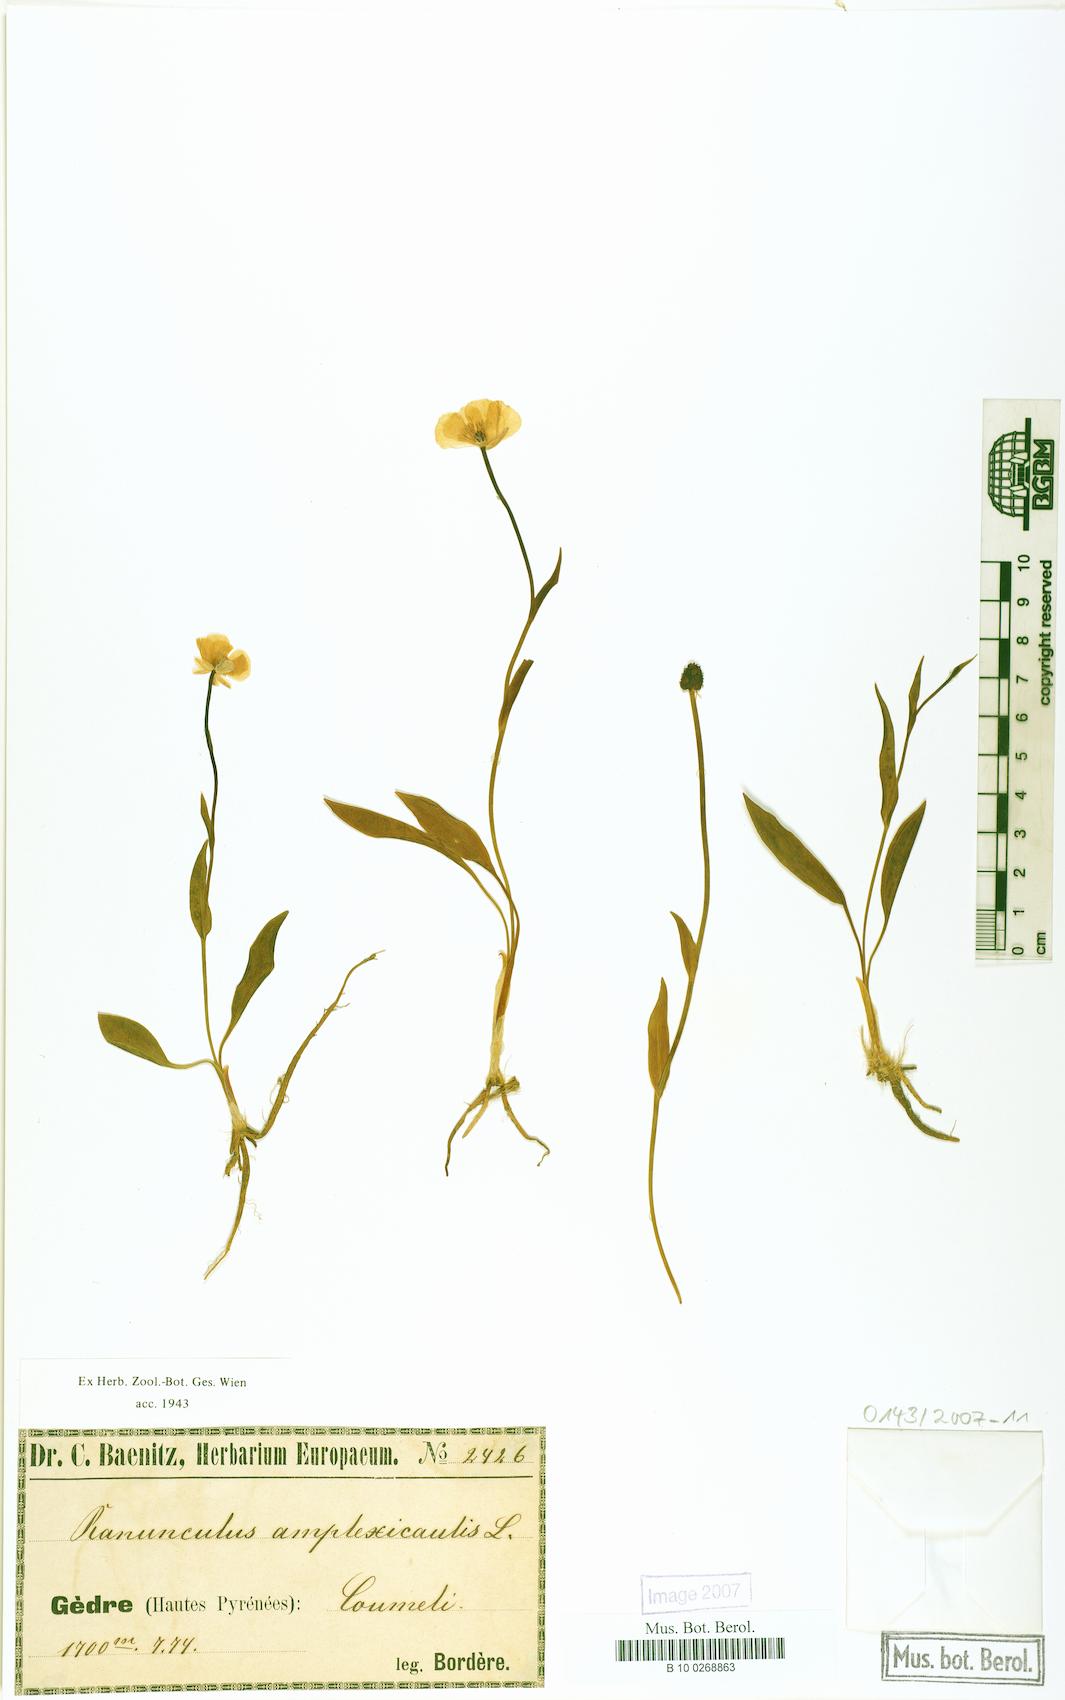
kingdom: Plantae
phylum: Tracheophyta
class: Magnoliopsida
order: Ranunculales
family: Ranunculaceae
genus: Ranunculus
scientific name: Ranunculus amplexicaulis
